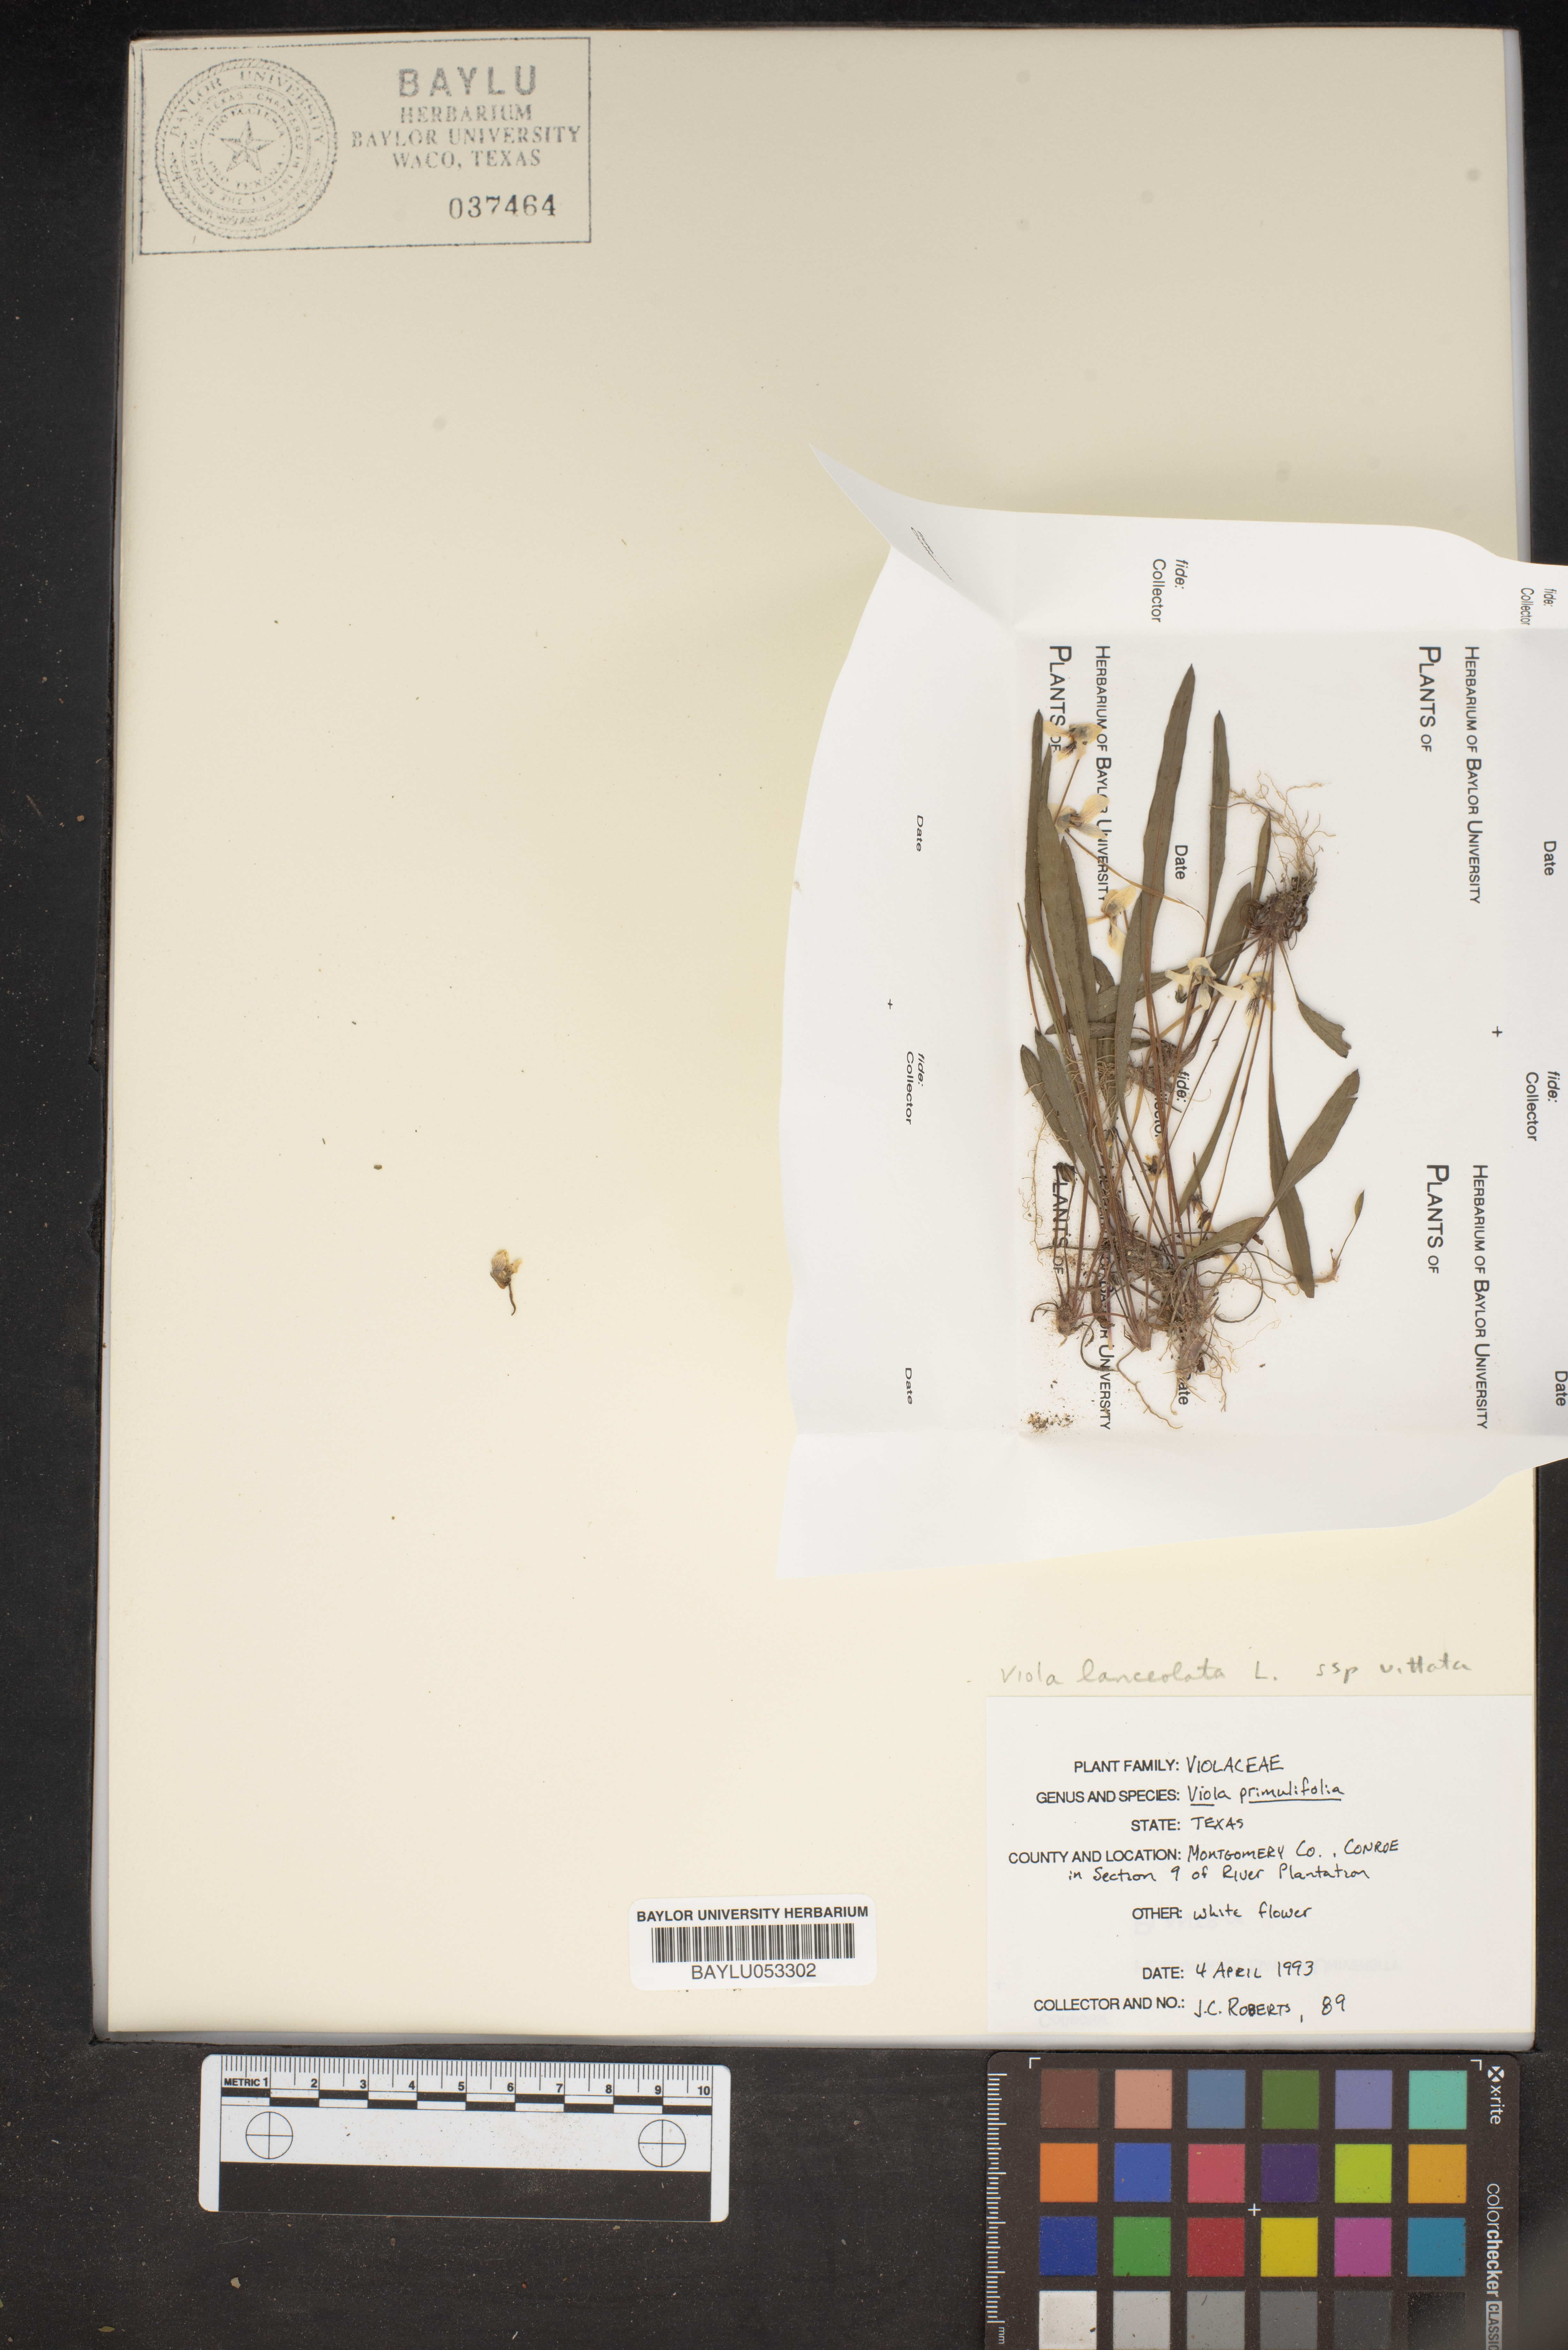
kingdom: Plantae
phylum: Tracheophyta
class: Magnoliopsida
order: Malpighiales
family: Violaceae
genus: Viola
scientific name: Viola primulifolia
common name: Primrose-leaf violet
